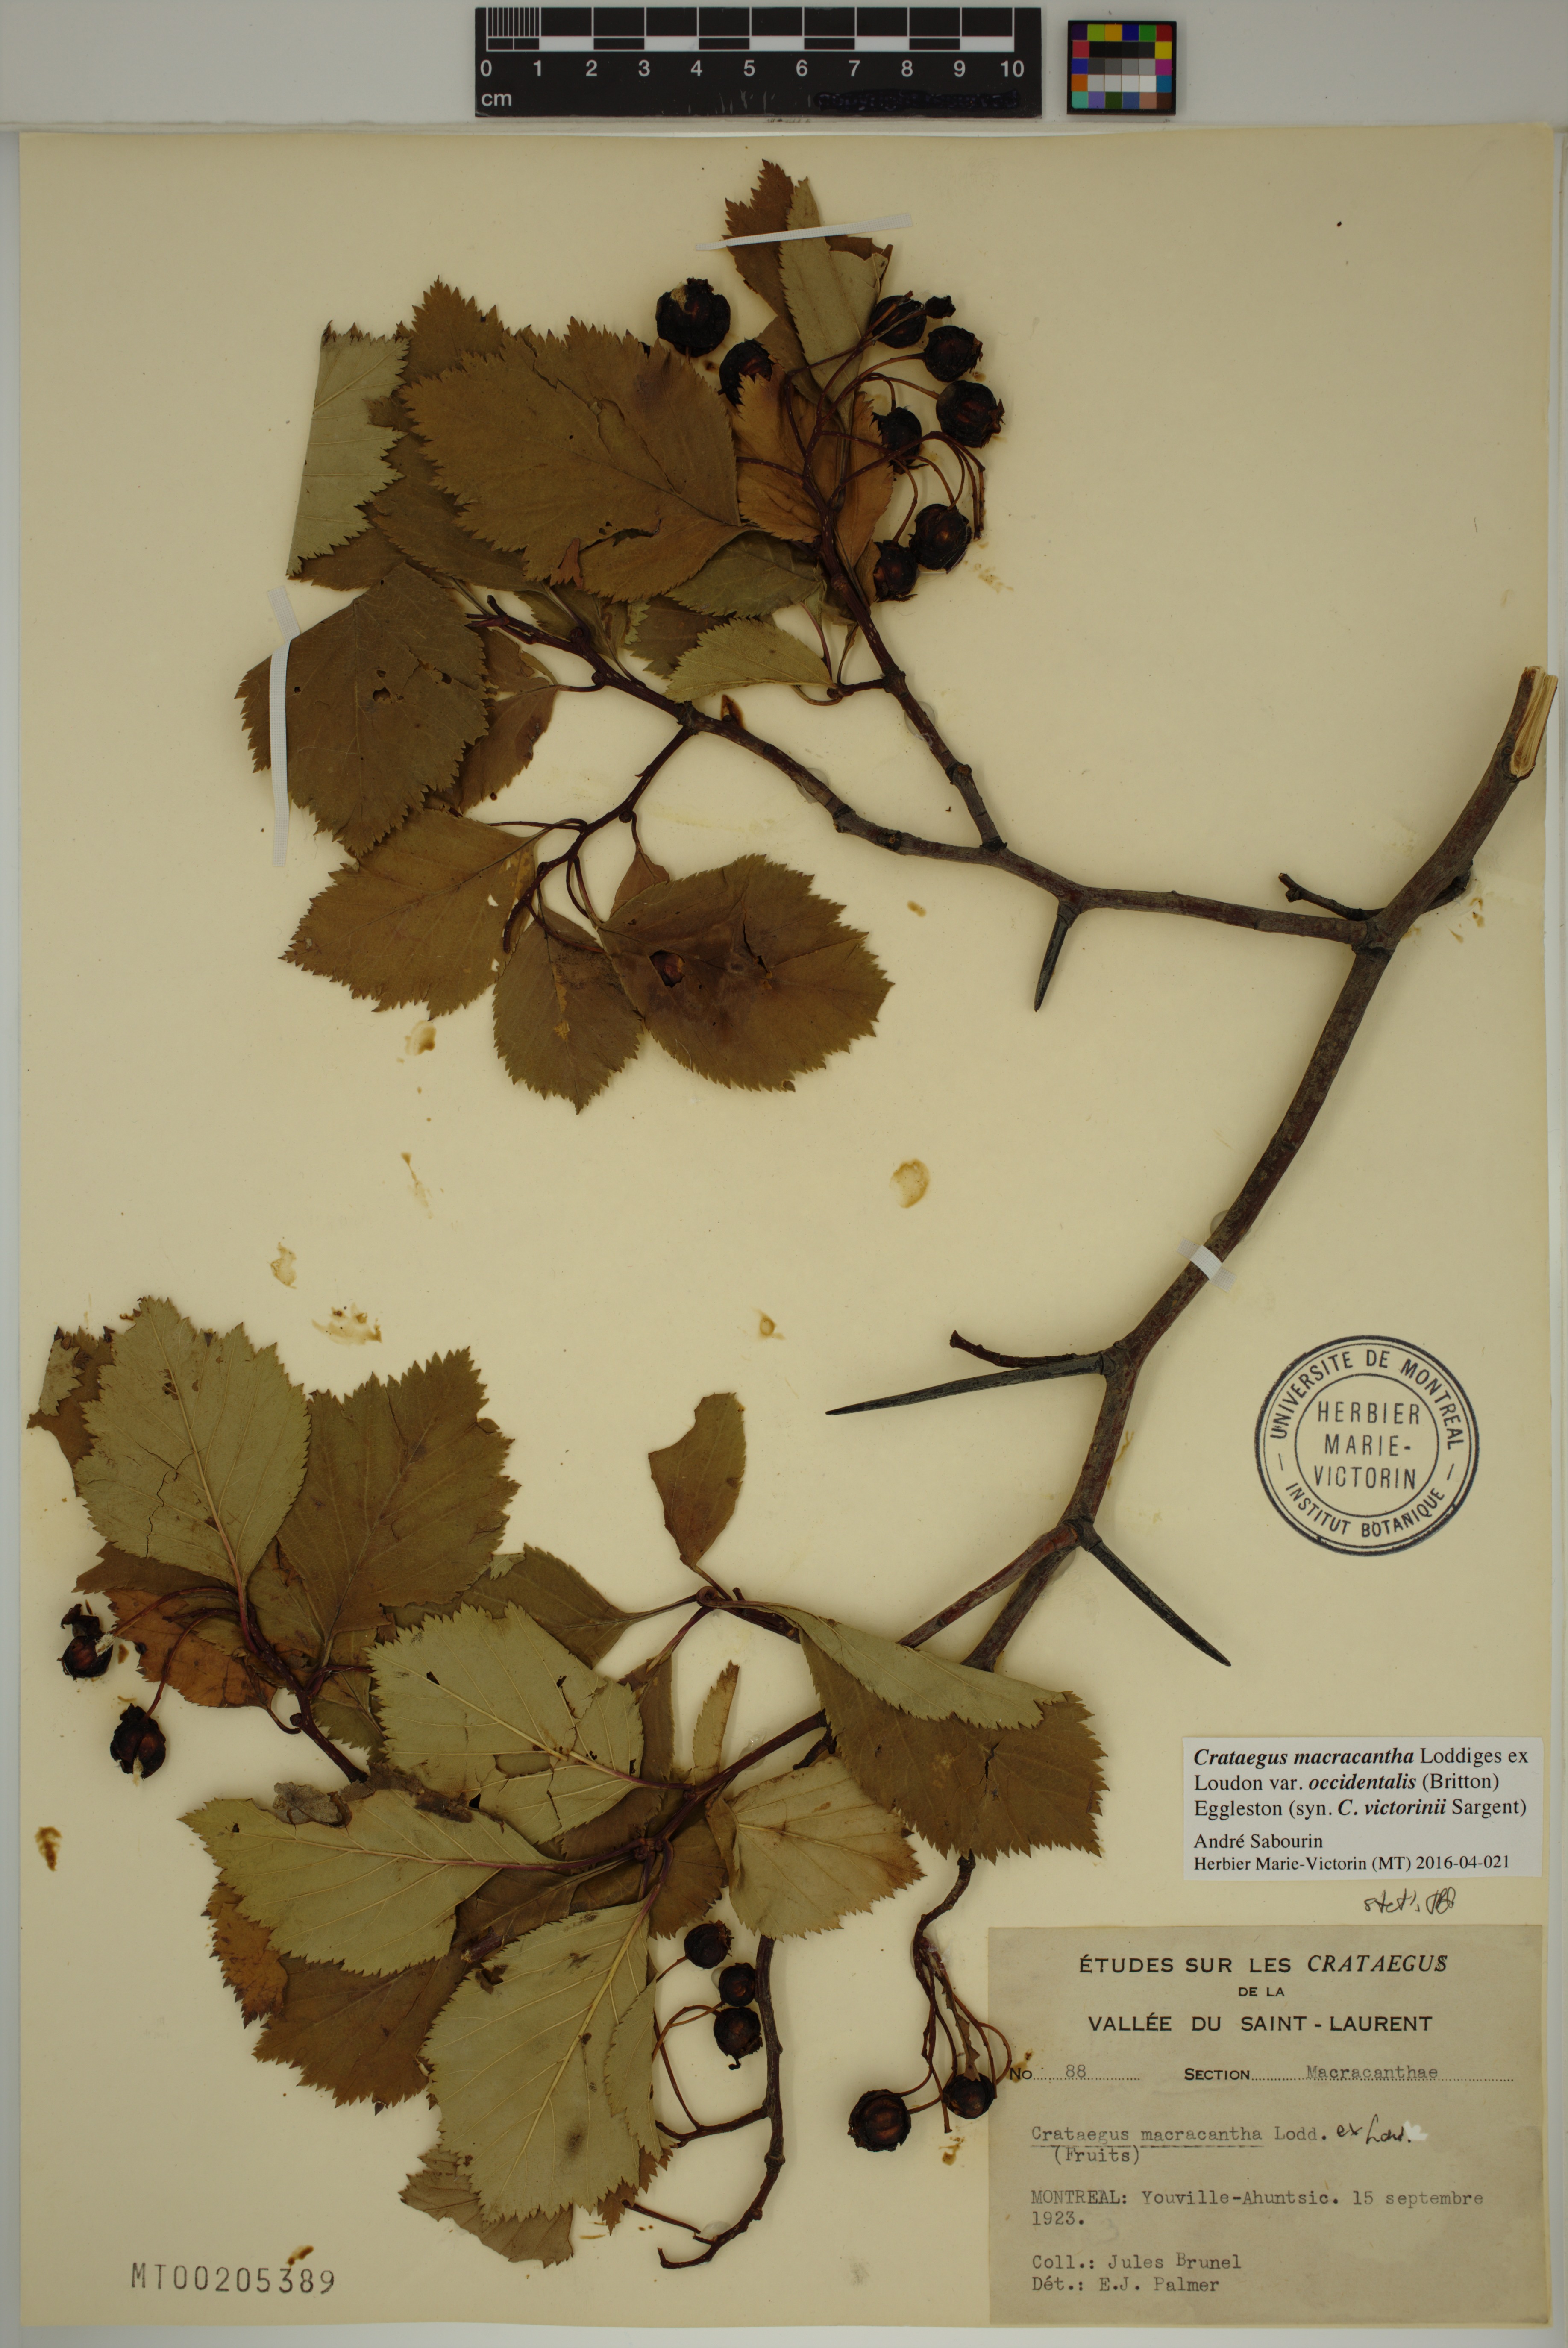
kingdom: Plantae
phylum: Tracheophyta
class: Magnoliopsida
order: Rosales
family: Rosaceae
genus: Crataegus
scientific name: Crataegus macracantha
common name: Large-thorn hawthorn
